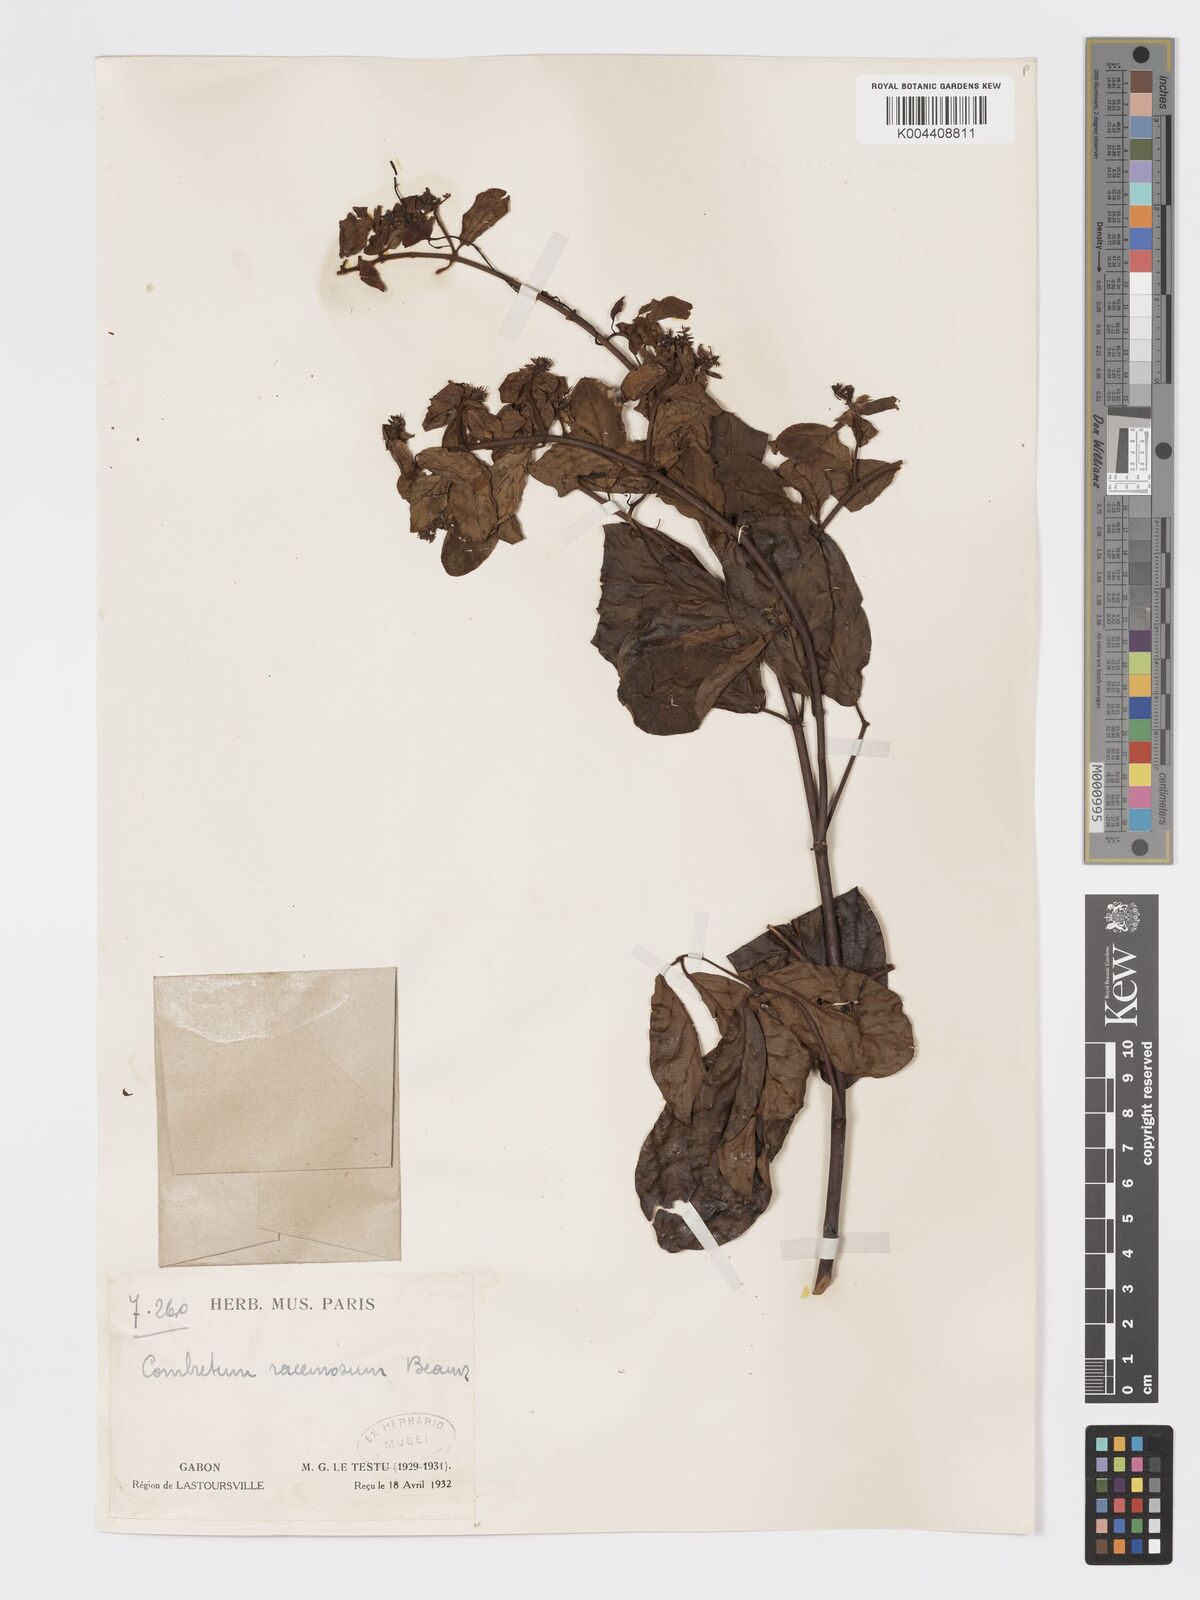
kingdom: Plantae
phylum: Tracheophyta
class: Magnoliopsida
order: Myrtales
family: Combretaceae
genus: Combretum
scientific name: Combretum racemosum
